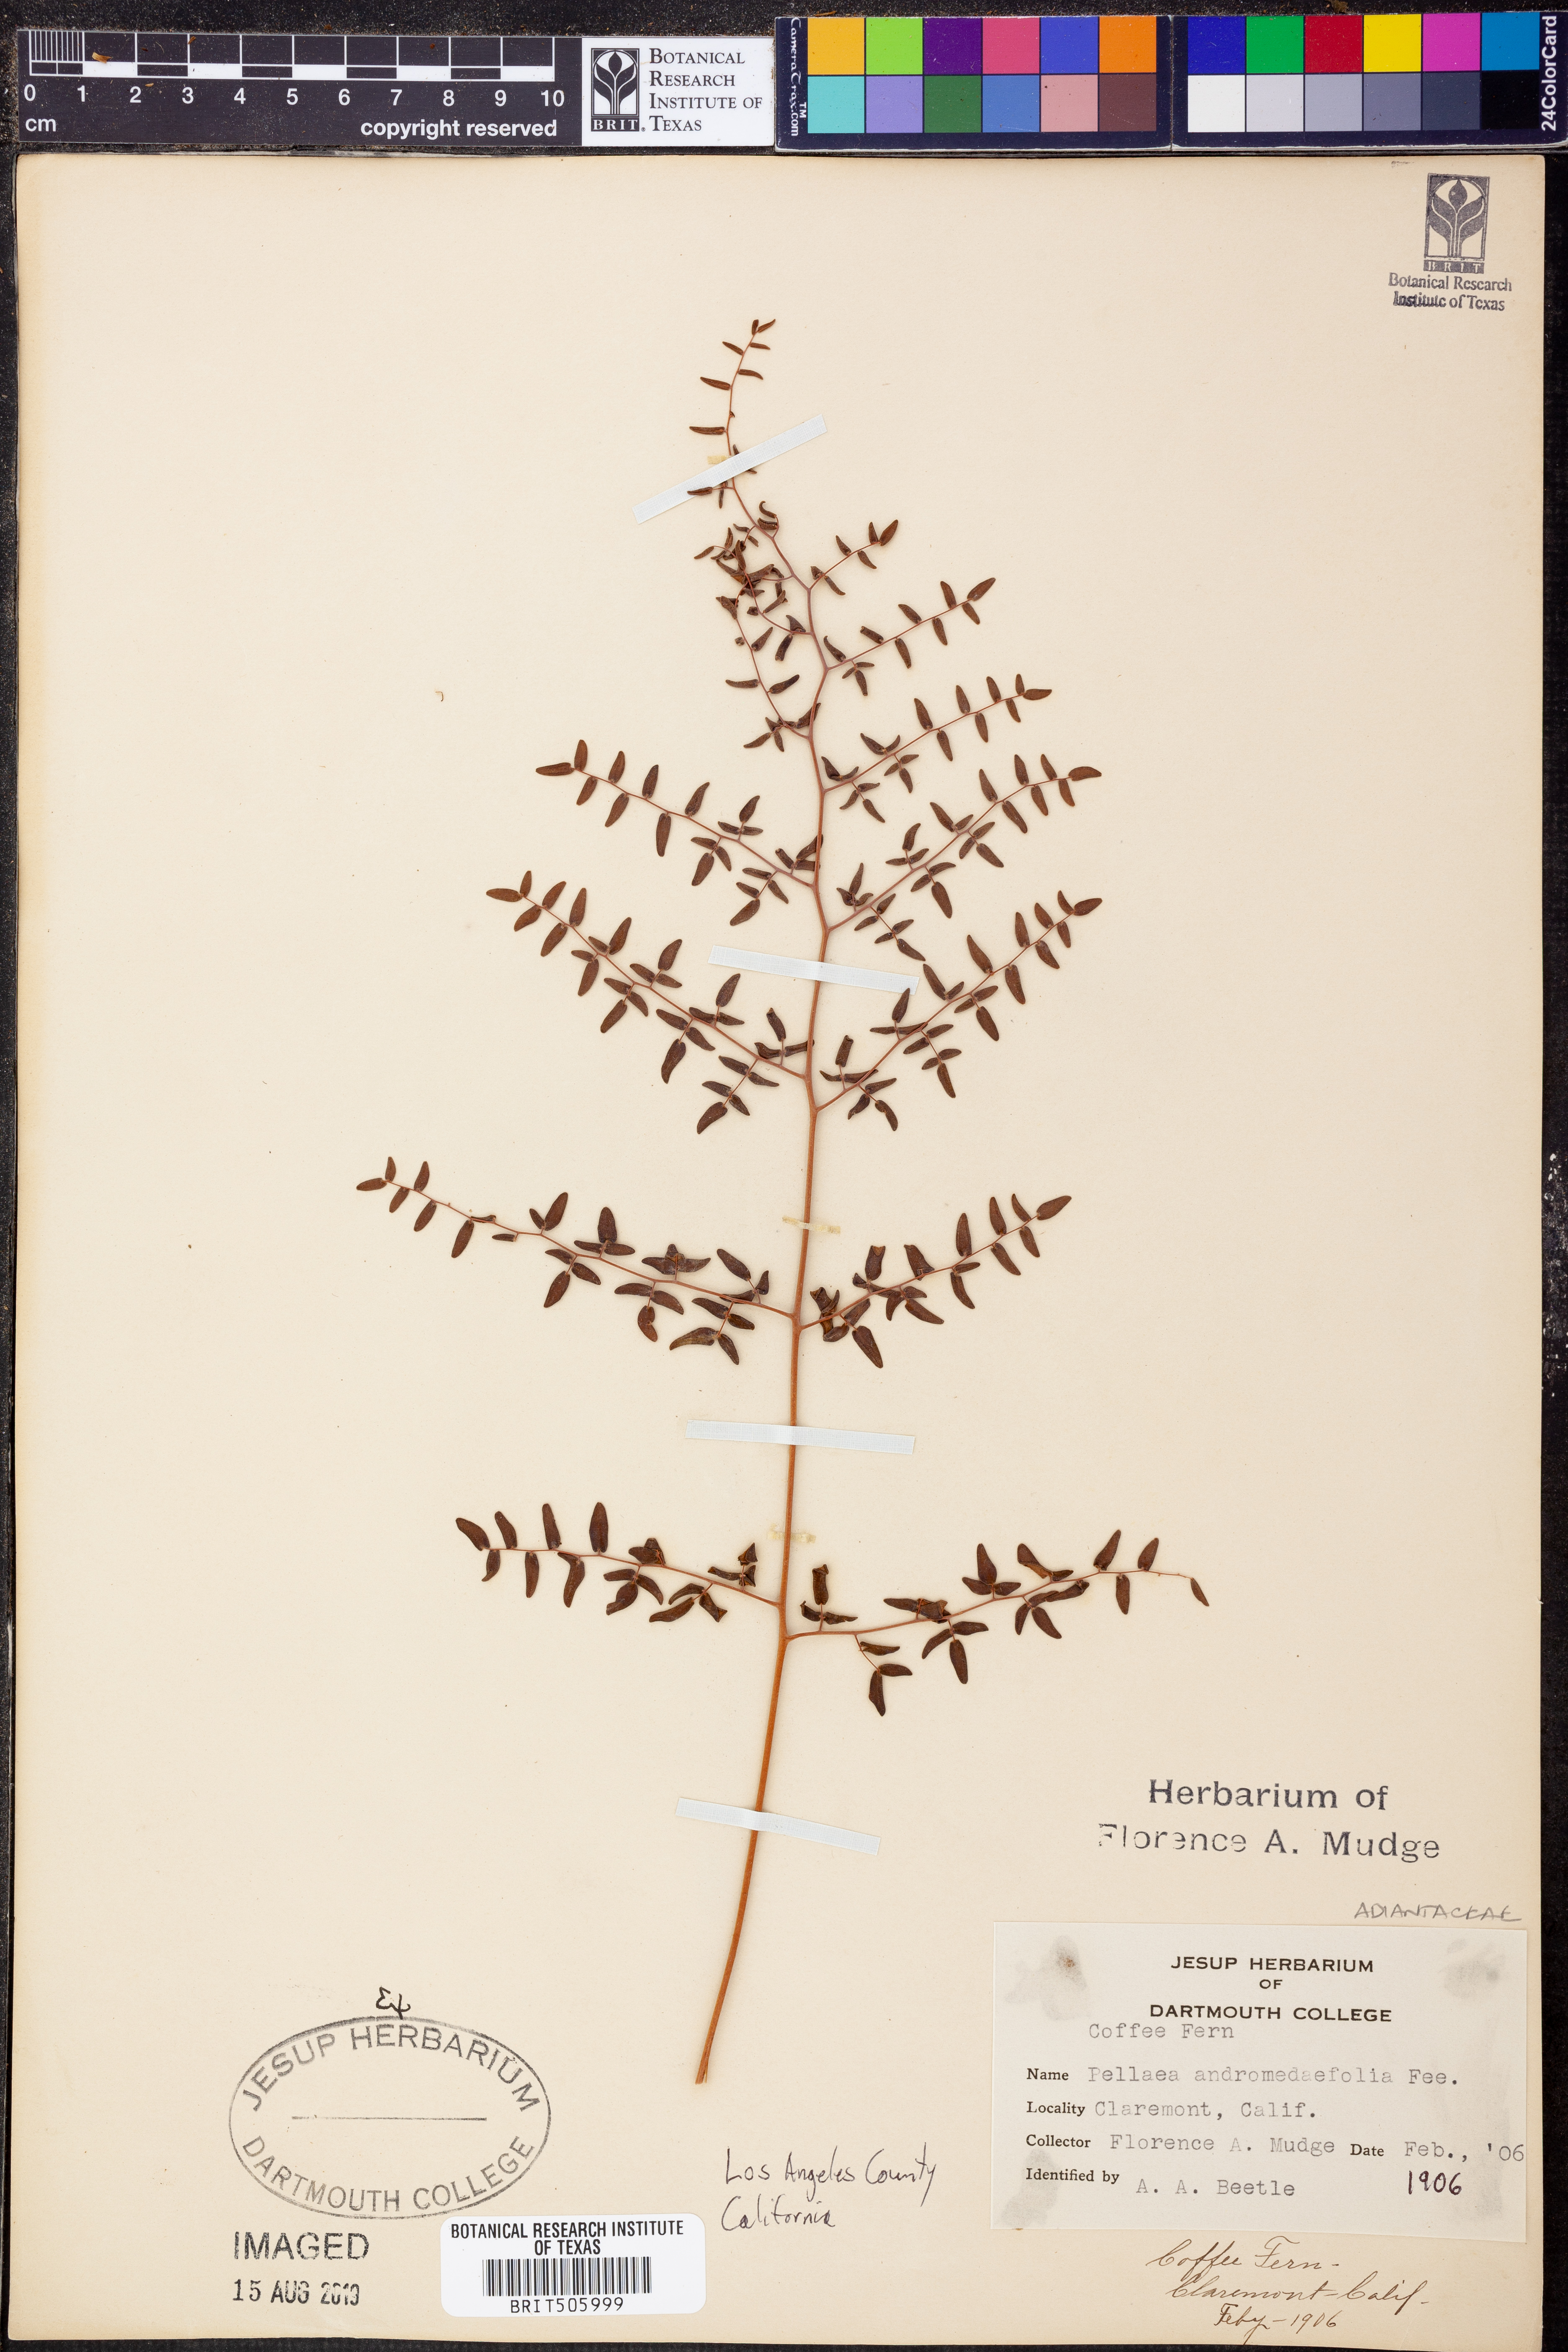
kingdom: Plantae
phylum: Tracheophyta
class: Polypodiopsida
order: Polypodiales
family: Pteridaceae
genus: Pellaea
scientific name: Pellaea andromedifolia
